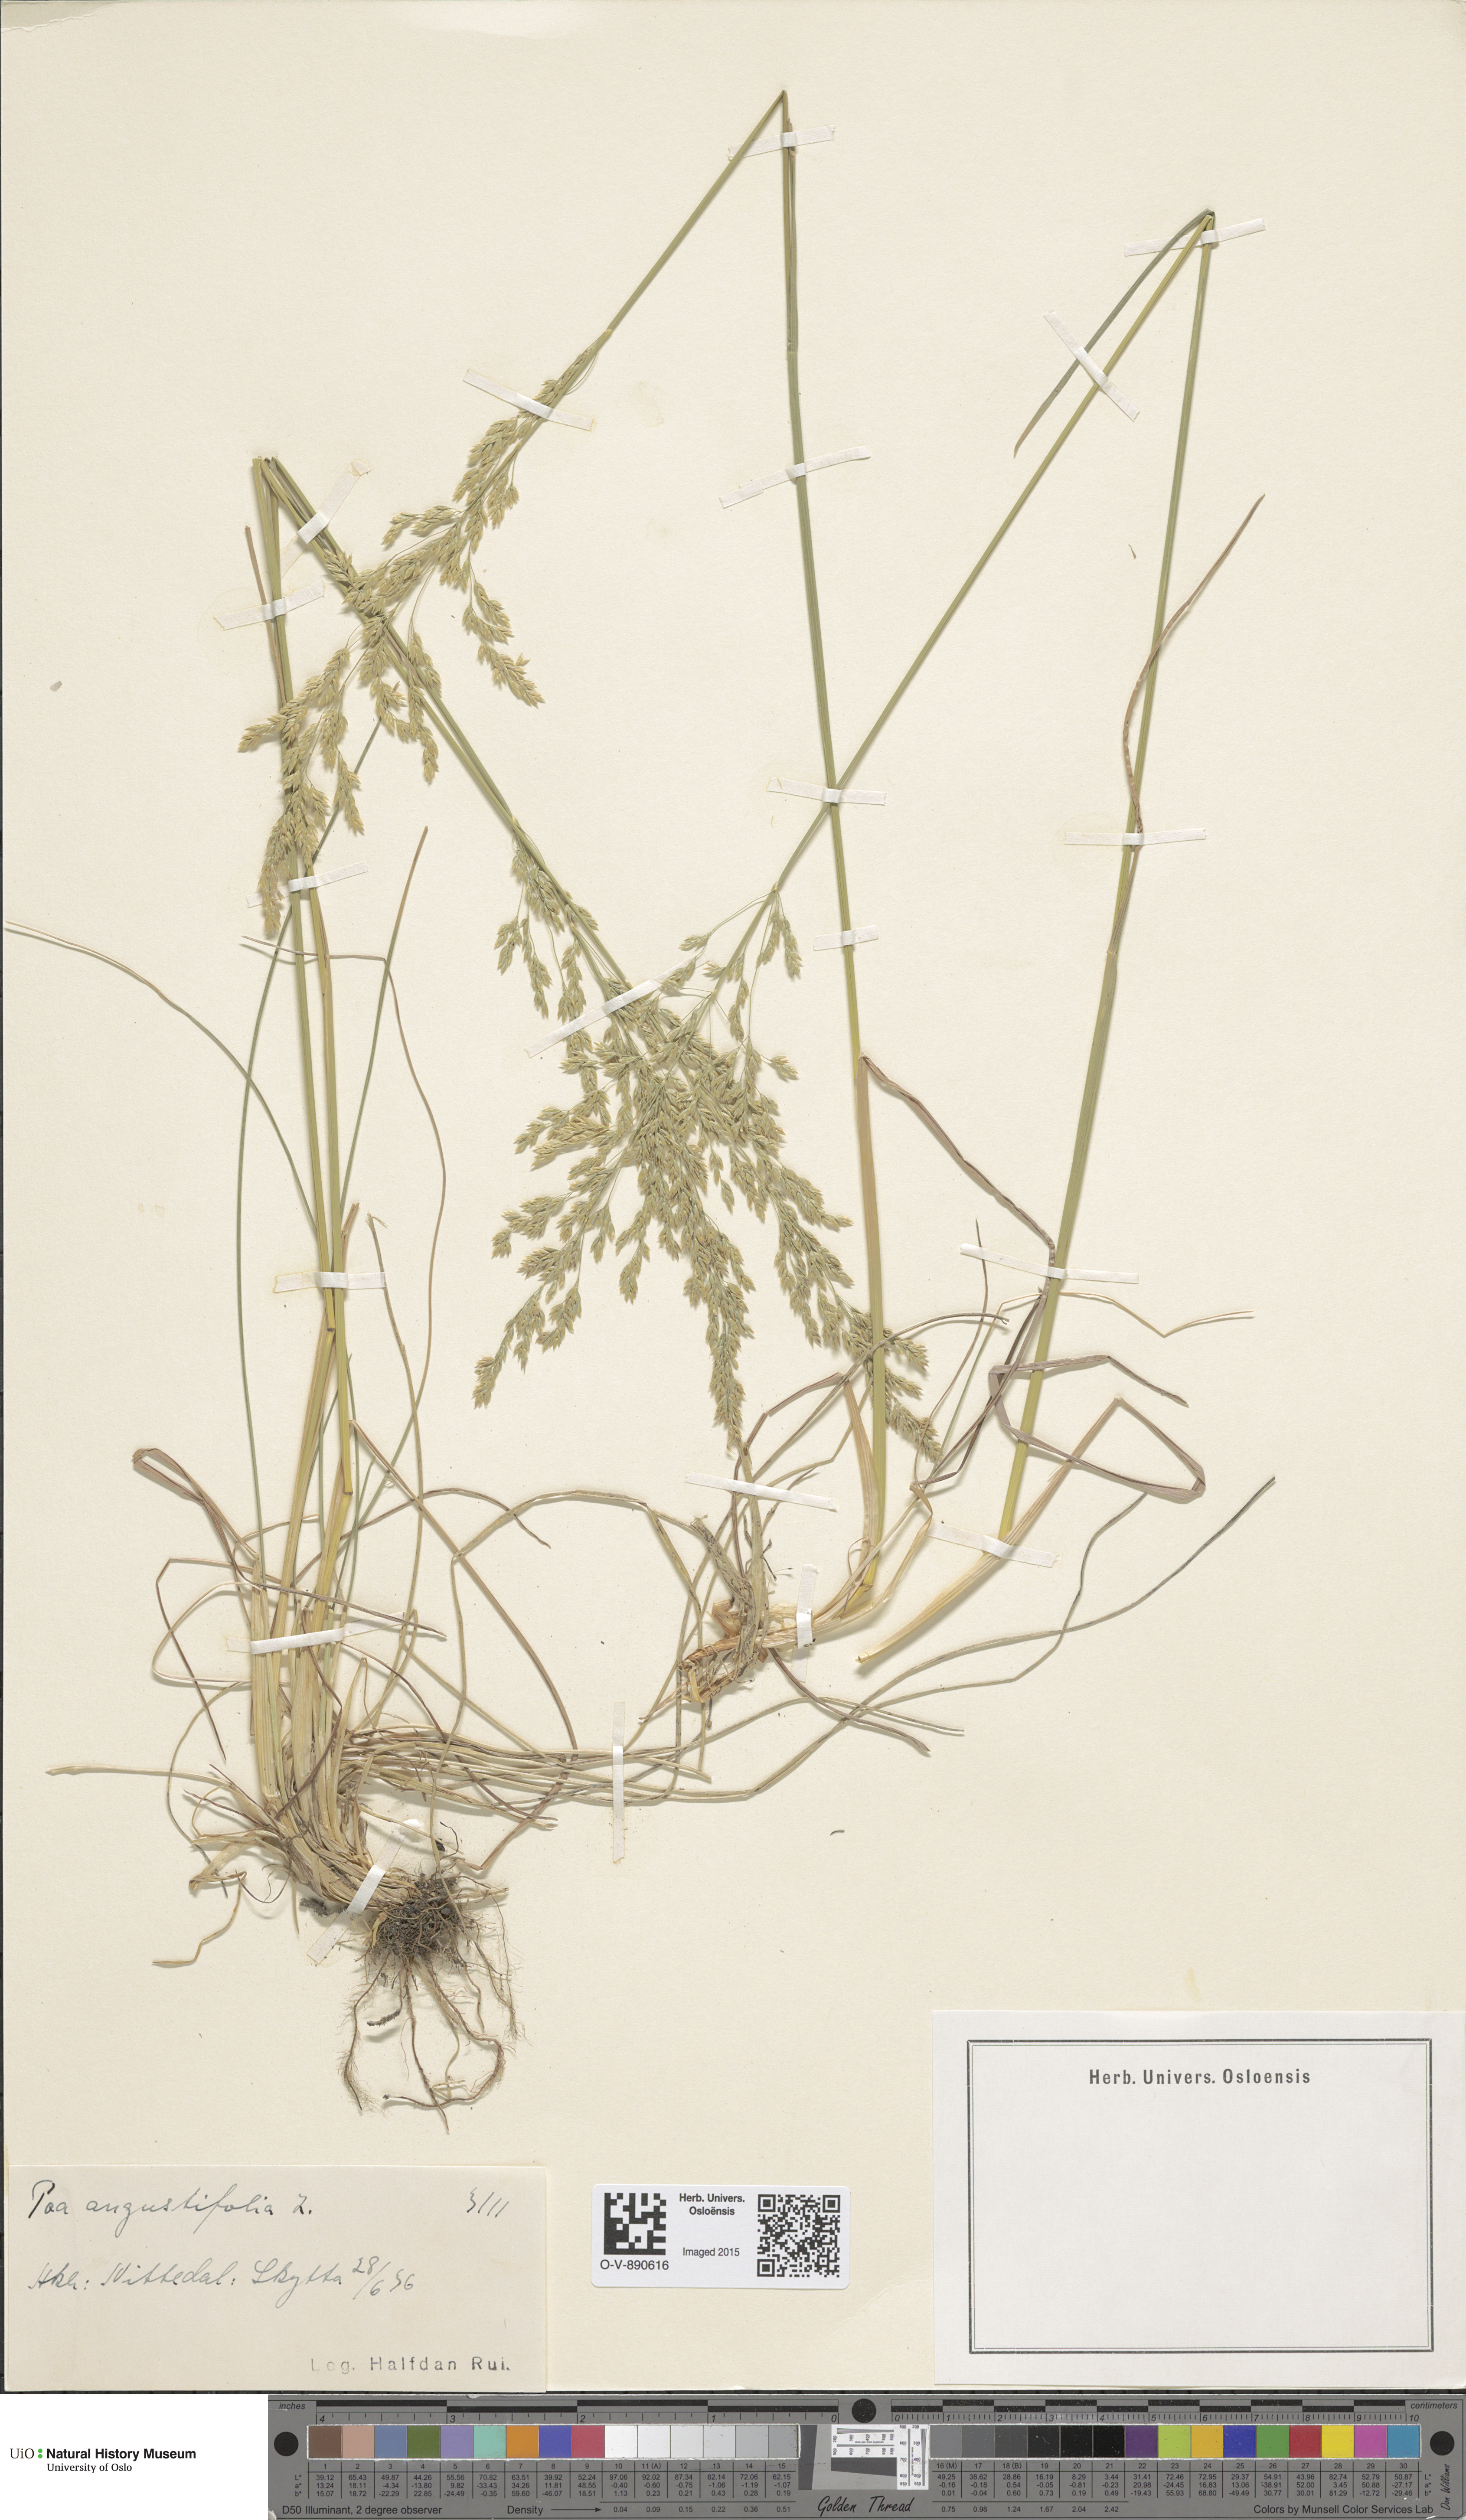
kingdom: Plantae
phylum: Tracheophyta
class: Liliopsida
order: Poales
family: Poaceae
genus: Poa
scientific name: Poa angustifolia
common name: Narrow-leaved meadow-grass
